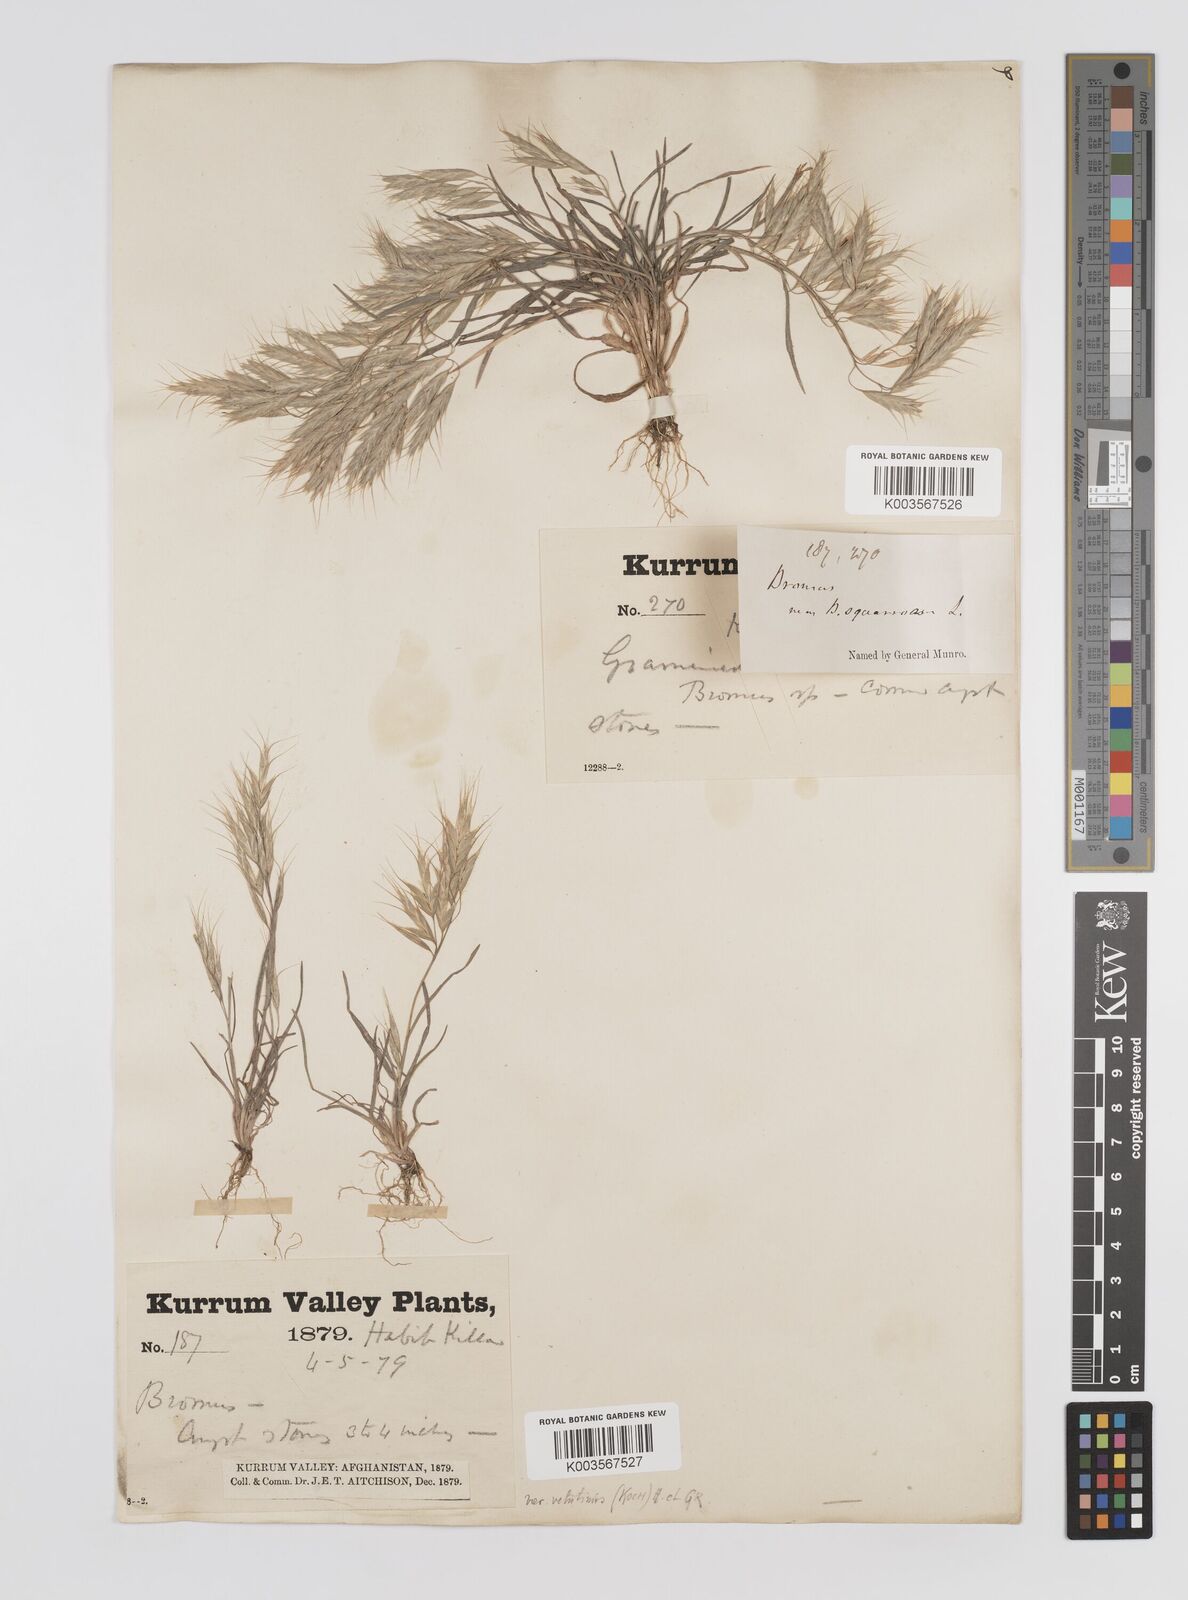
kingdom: Plantae
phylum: Tracheophyta
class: Liliopsida
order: Poales
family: Poaceae
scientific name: Poaceae
